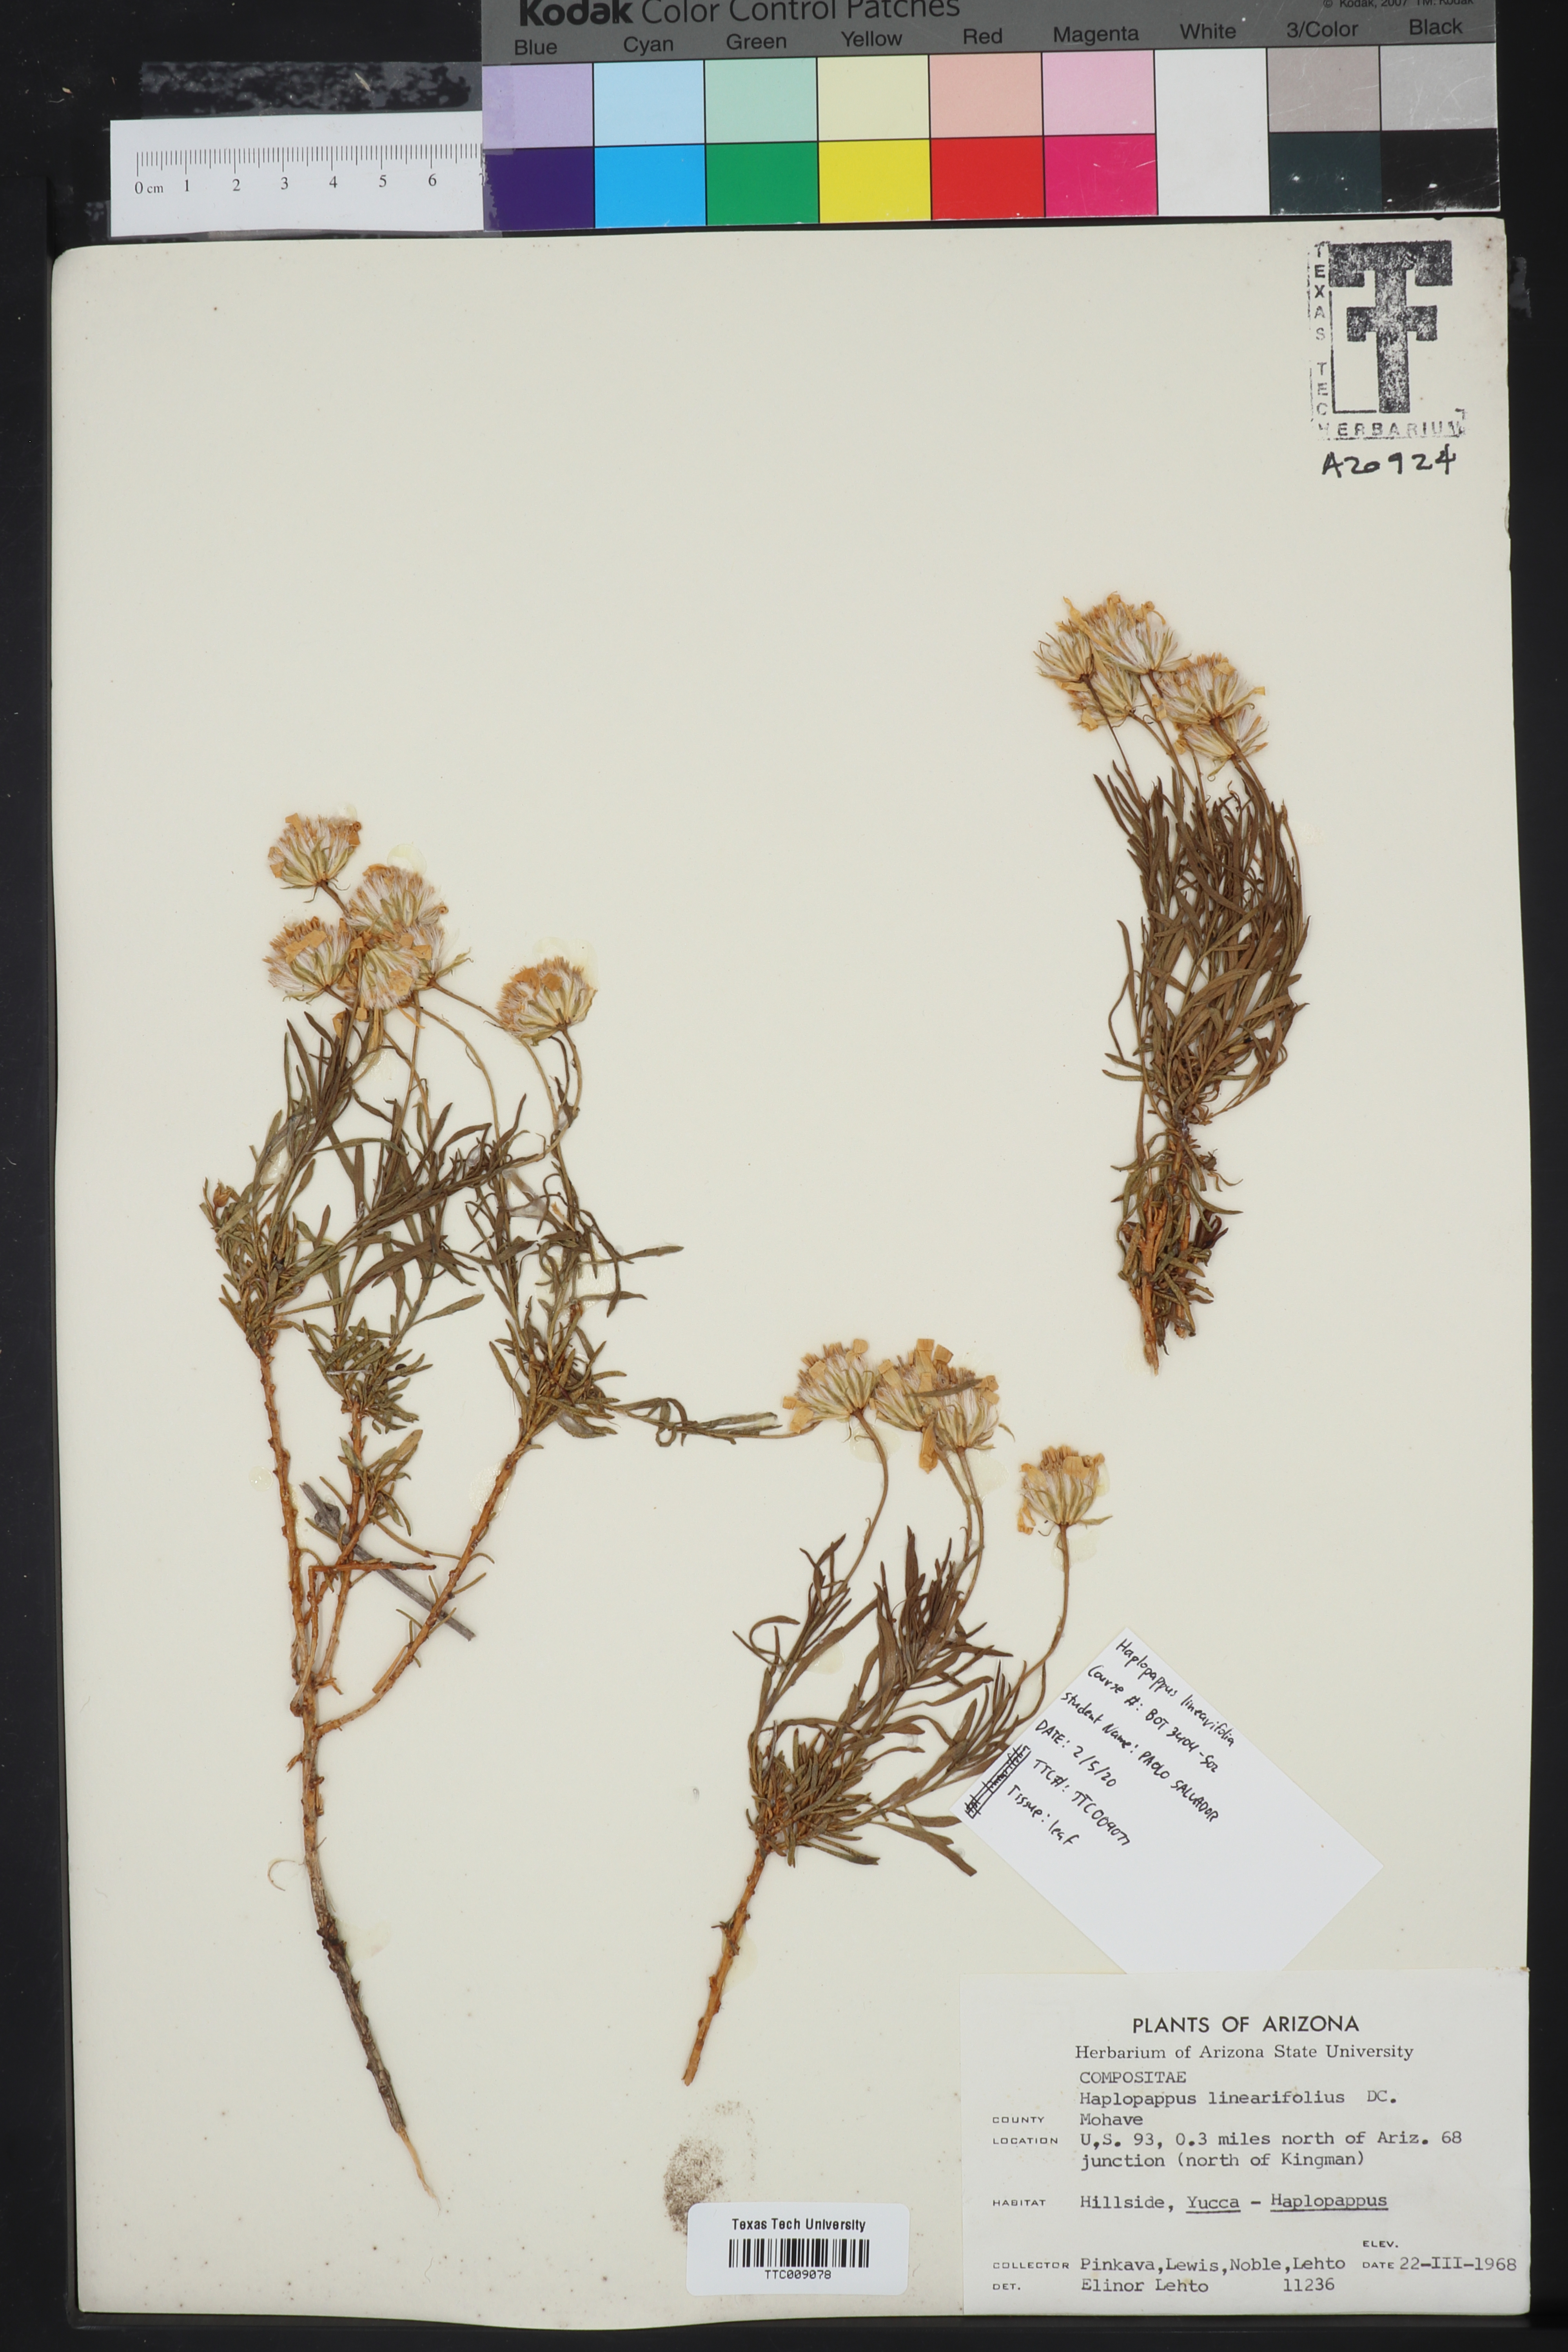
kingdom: Plantae
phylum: Tracheophyta
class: Magnoliopsida
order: Asterales
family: Asteraceae
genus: Ericameria
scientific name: Ericameria linearifolia
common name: Interior goldenbush
